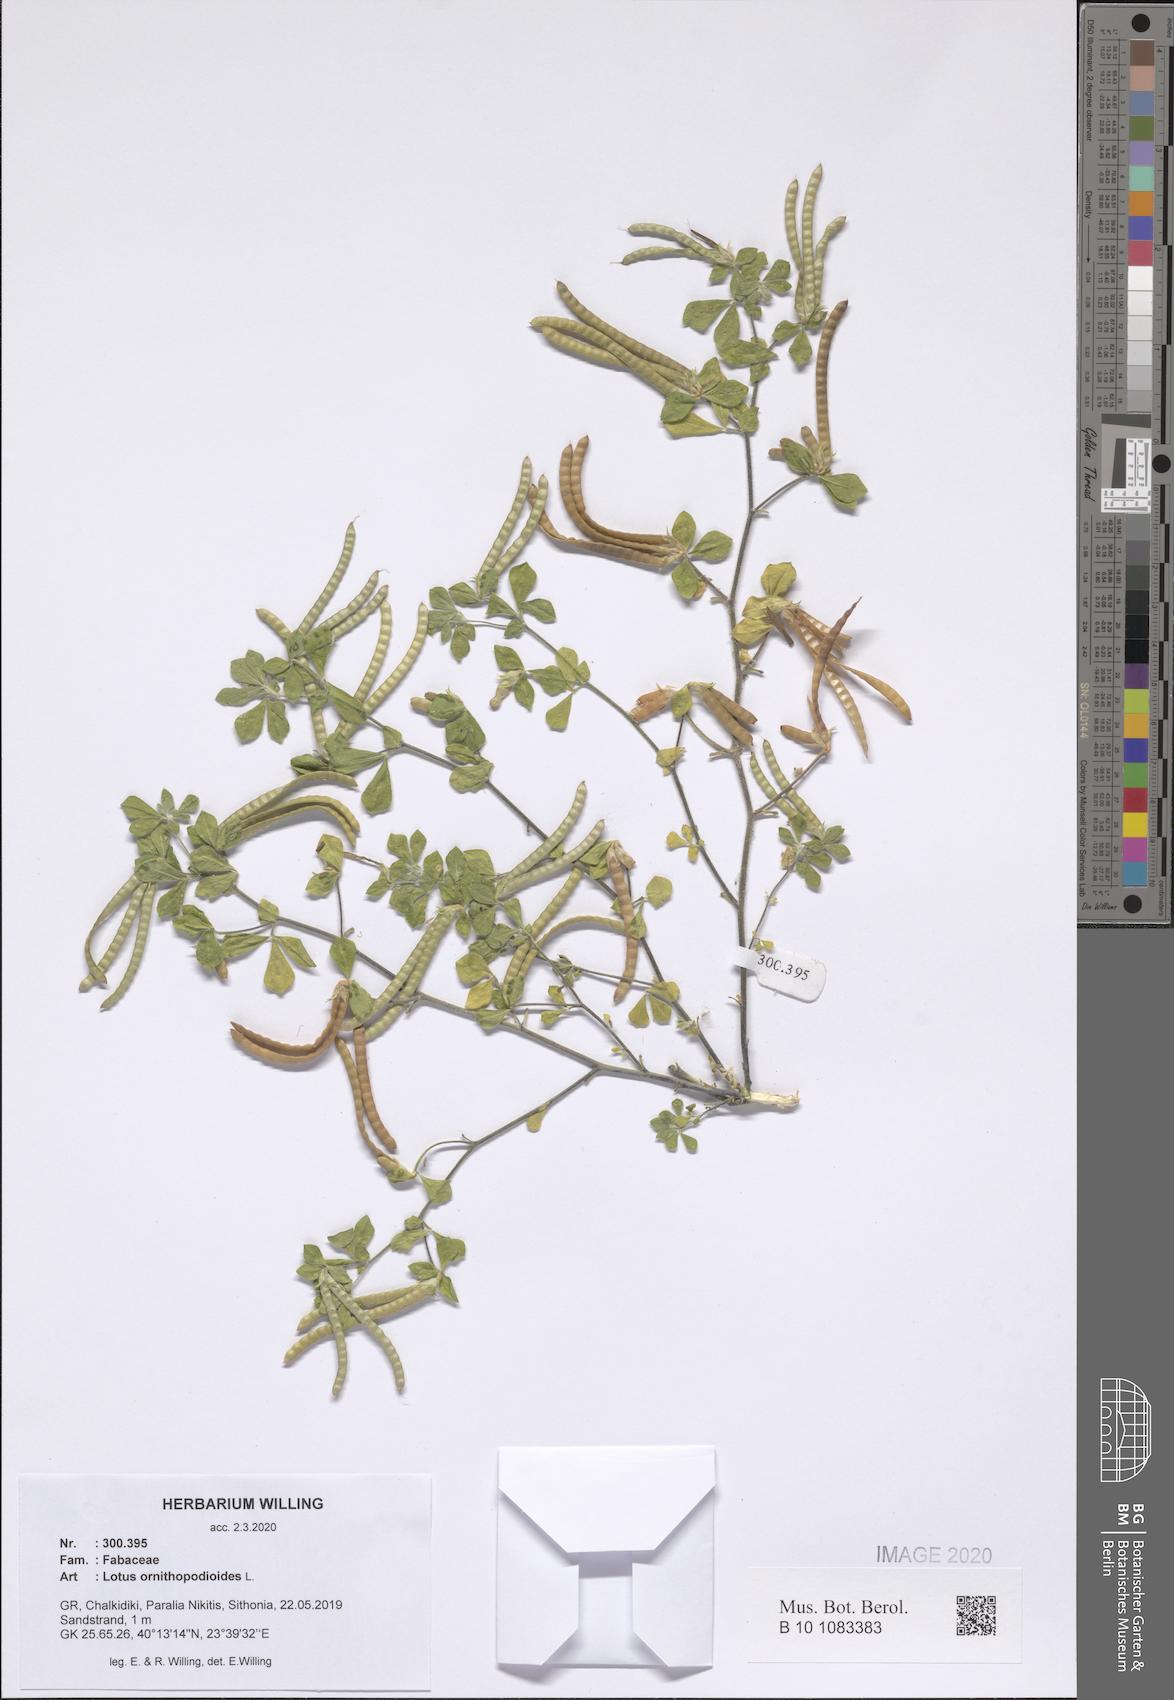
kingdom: Plantae
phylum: Tracheophyta
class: Magnoliopsida
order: Fabales
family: Fabaceae
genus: Lotus
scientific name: Lotus ornithopodioides
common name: Southern bird's-foot trefoil
